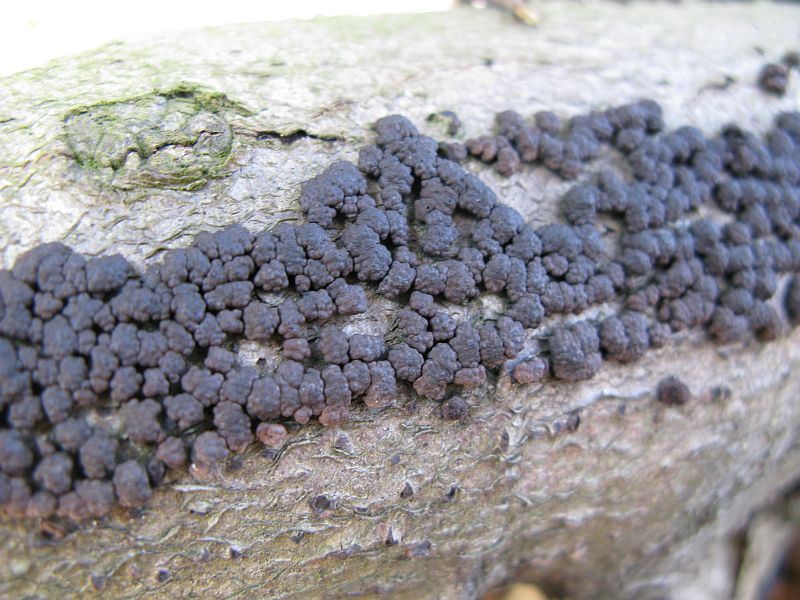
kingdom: Fungi
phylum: Ascomycota
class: Sordariomycetes
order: Xylariales
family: Hypoxylaceae
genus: Jackrogersella
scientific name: Jackrogersella cohaerens
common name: sammenflydende kulbær
